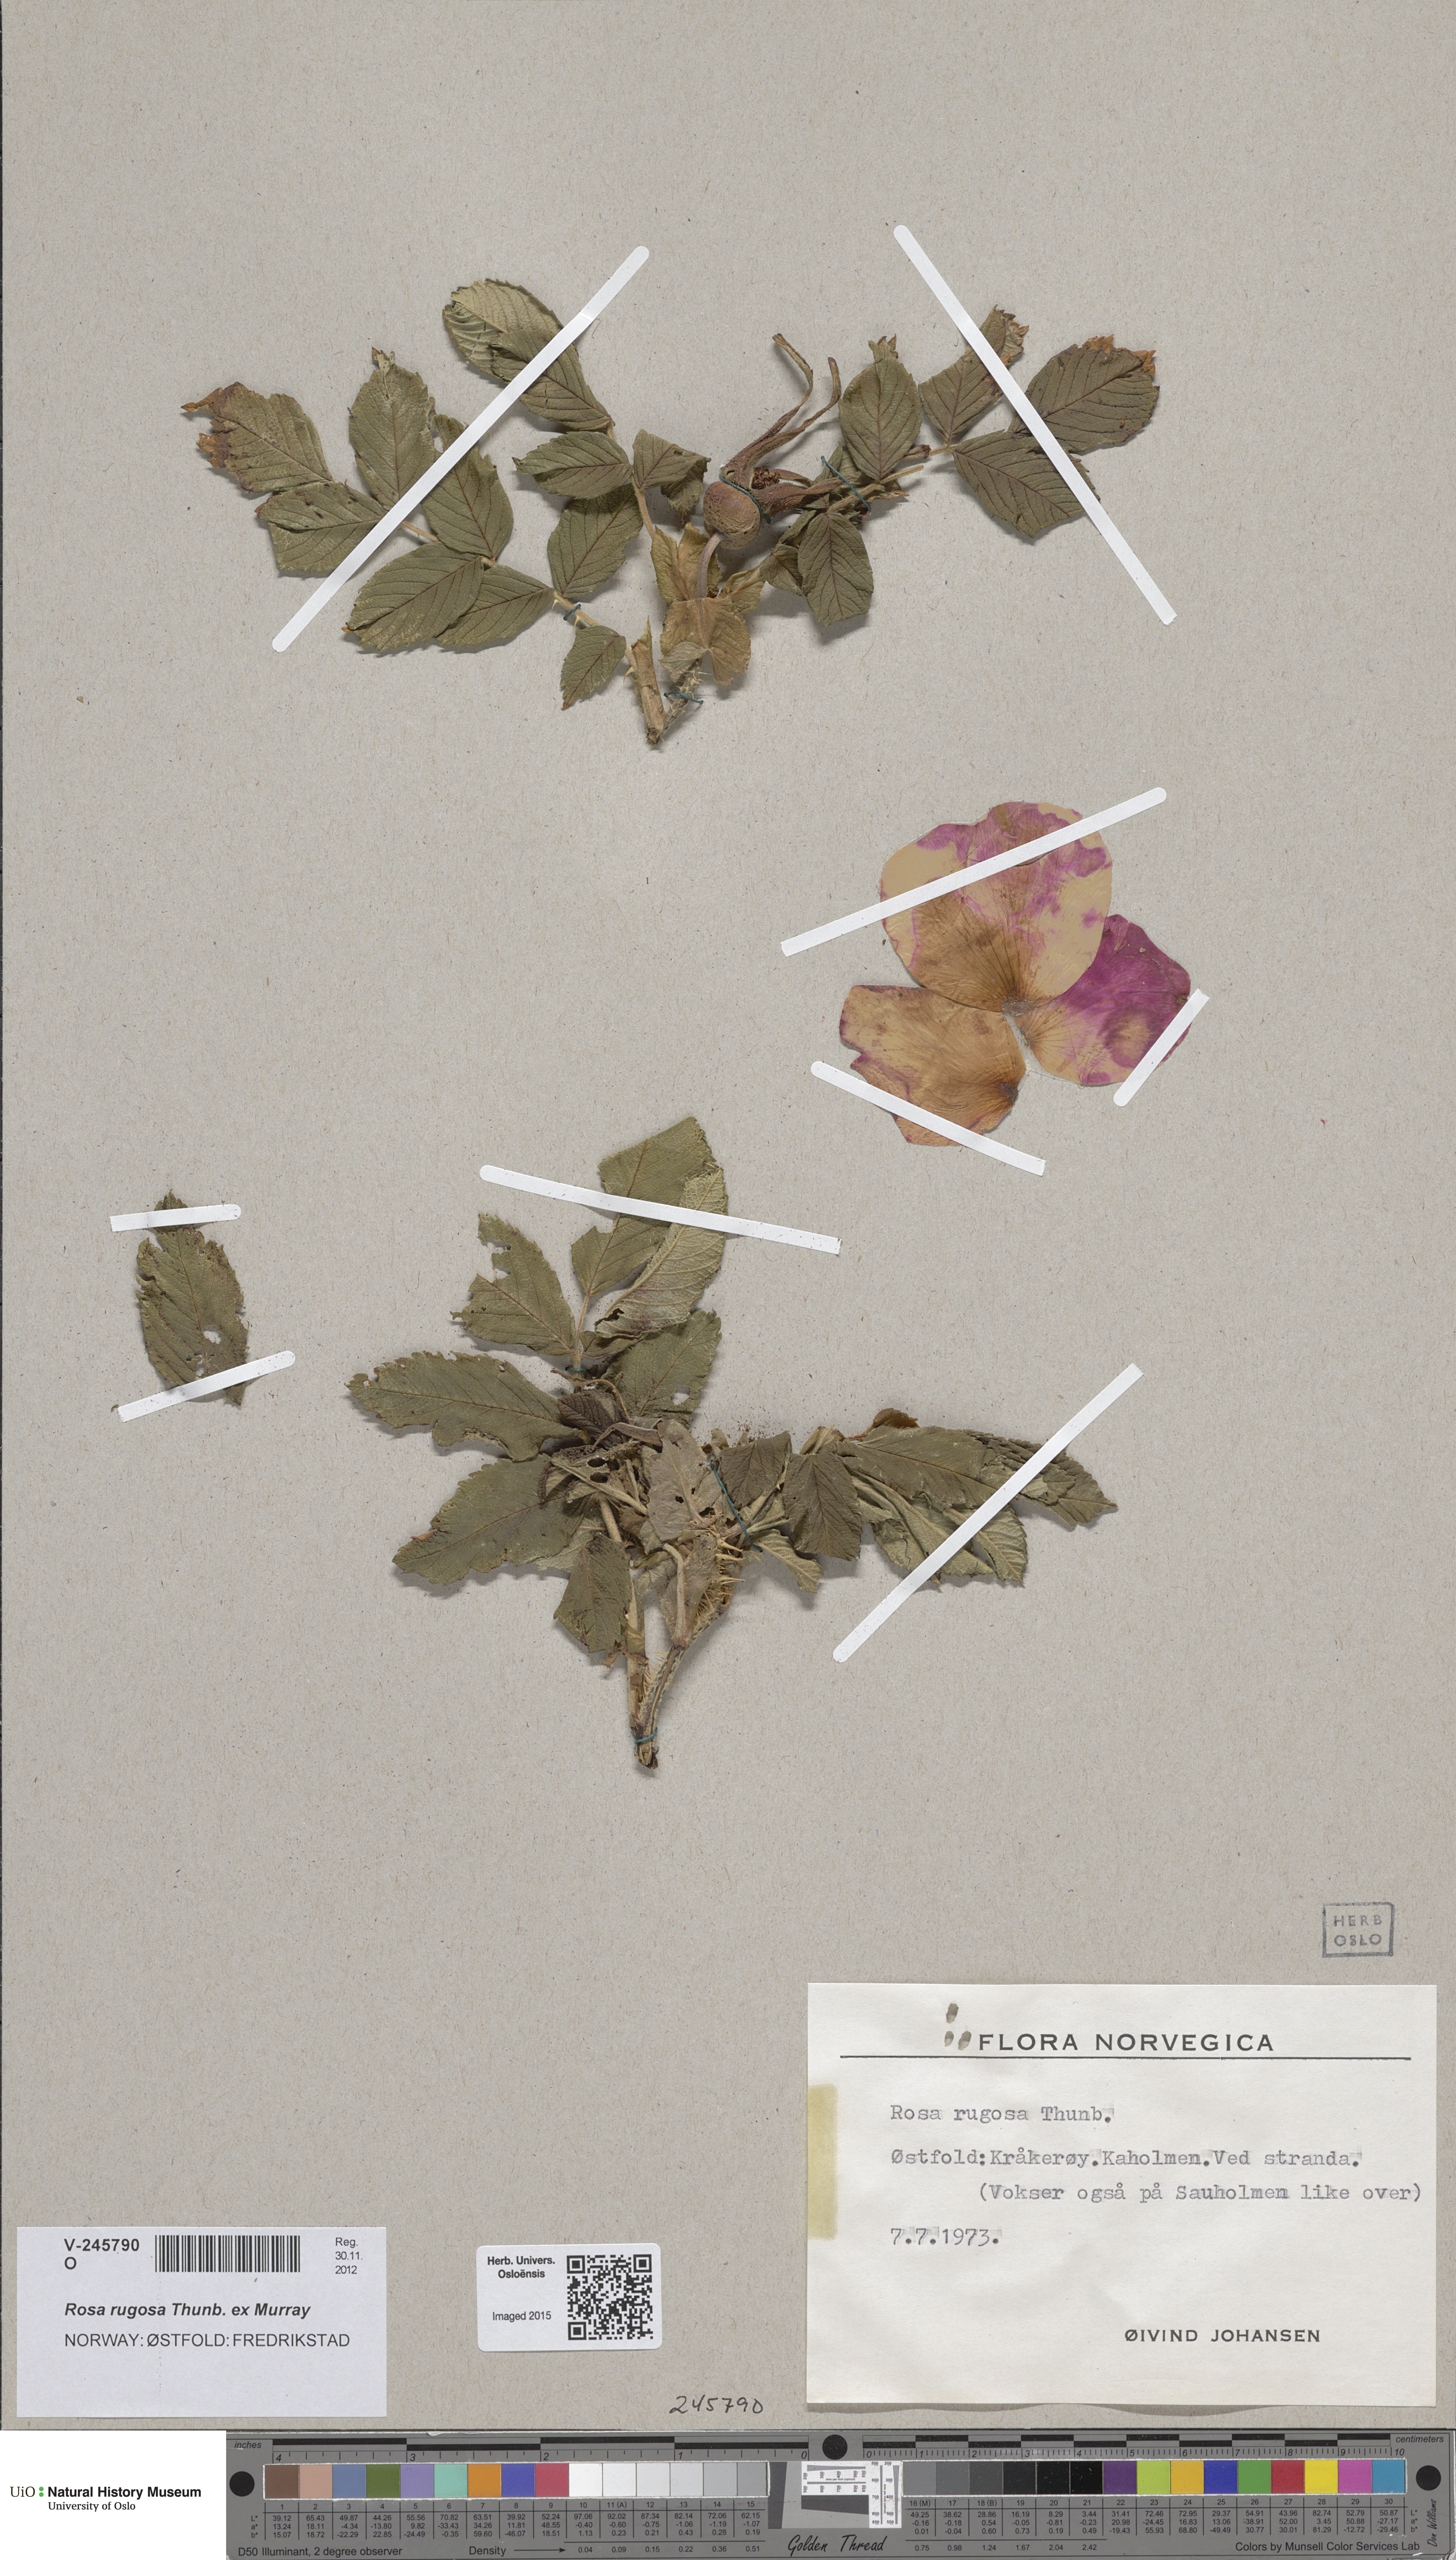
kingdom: Plantae
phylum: Tracheophyta
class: Magnoliopsida
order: Rosales
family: Rosaceae
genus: Rosa
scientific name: Rosa rugosa
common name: Japanese rose
